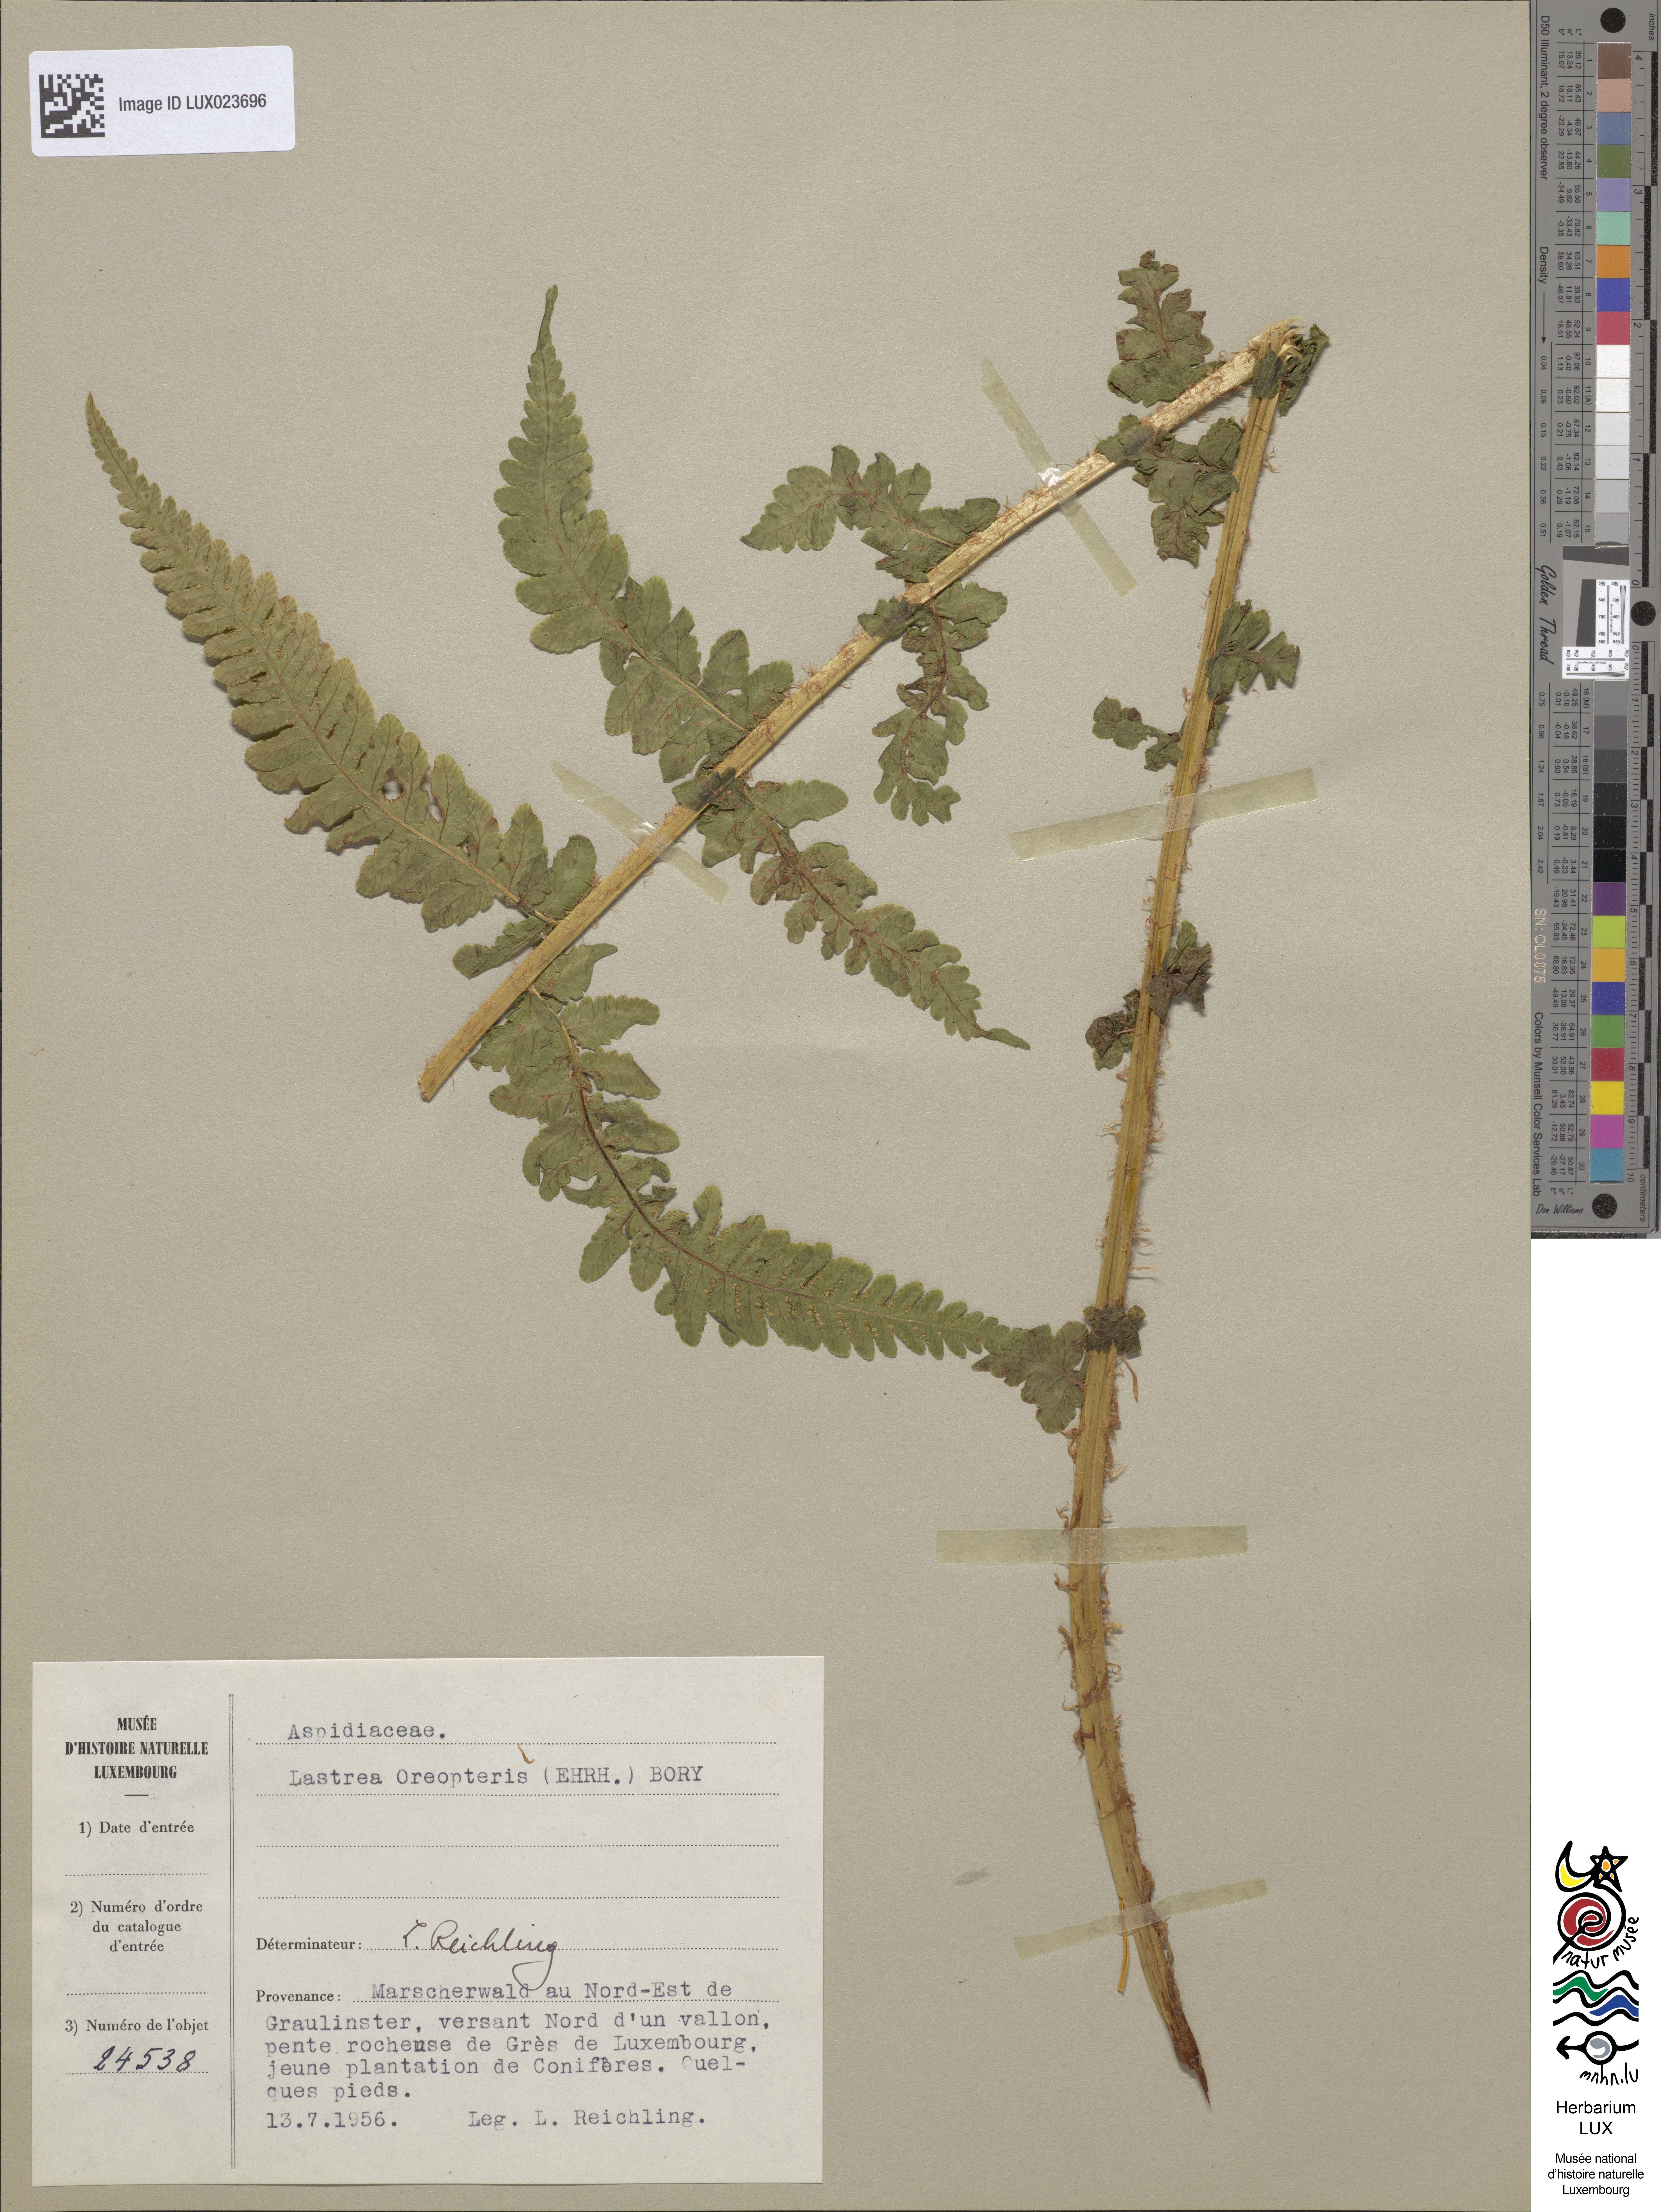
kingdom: Plantae
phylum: Tracheophyta
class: Polypodiopsida
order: Polypodiales
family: Thelypteridaceae
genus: Oreopteris
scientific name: Oreopteris limbosperma
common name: Lemon-scented fern
